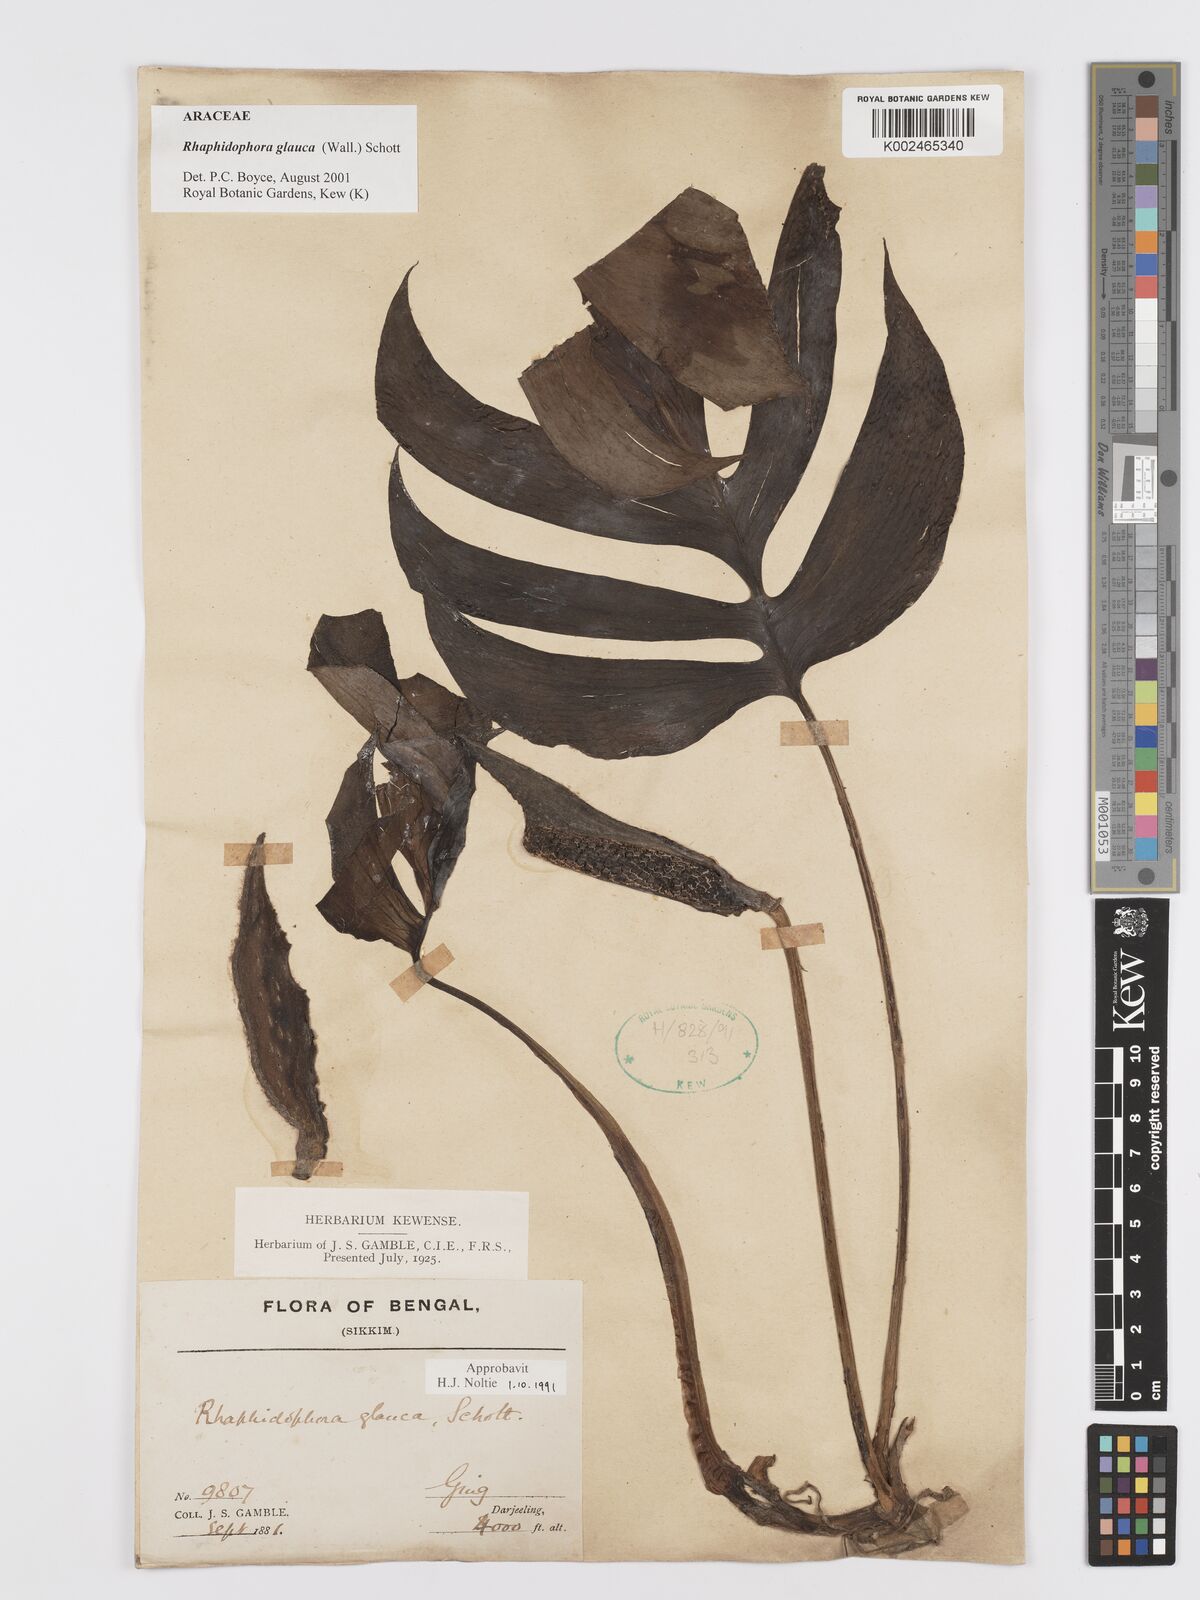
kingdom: Plantae
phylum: Tracheophyta
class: Liliopsida
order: Alismatales
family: Araceae
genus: Rhaphidophora
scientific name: Rhaphidophora glauca
